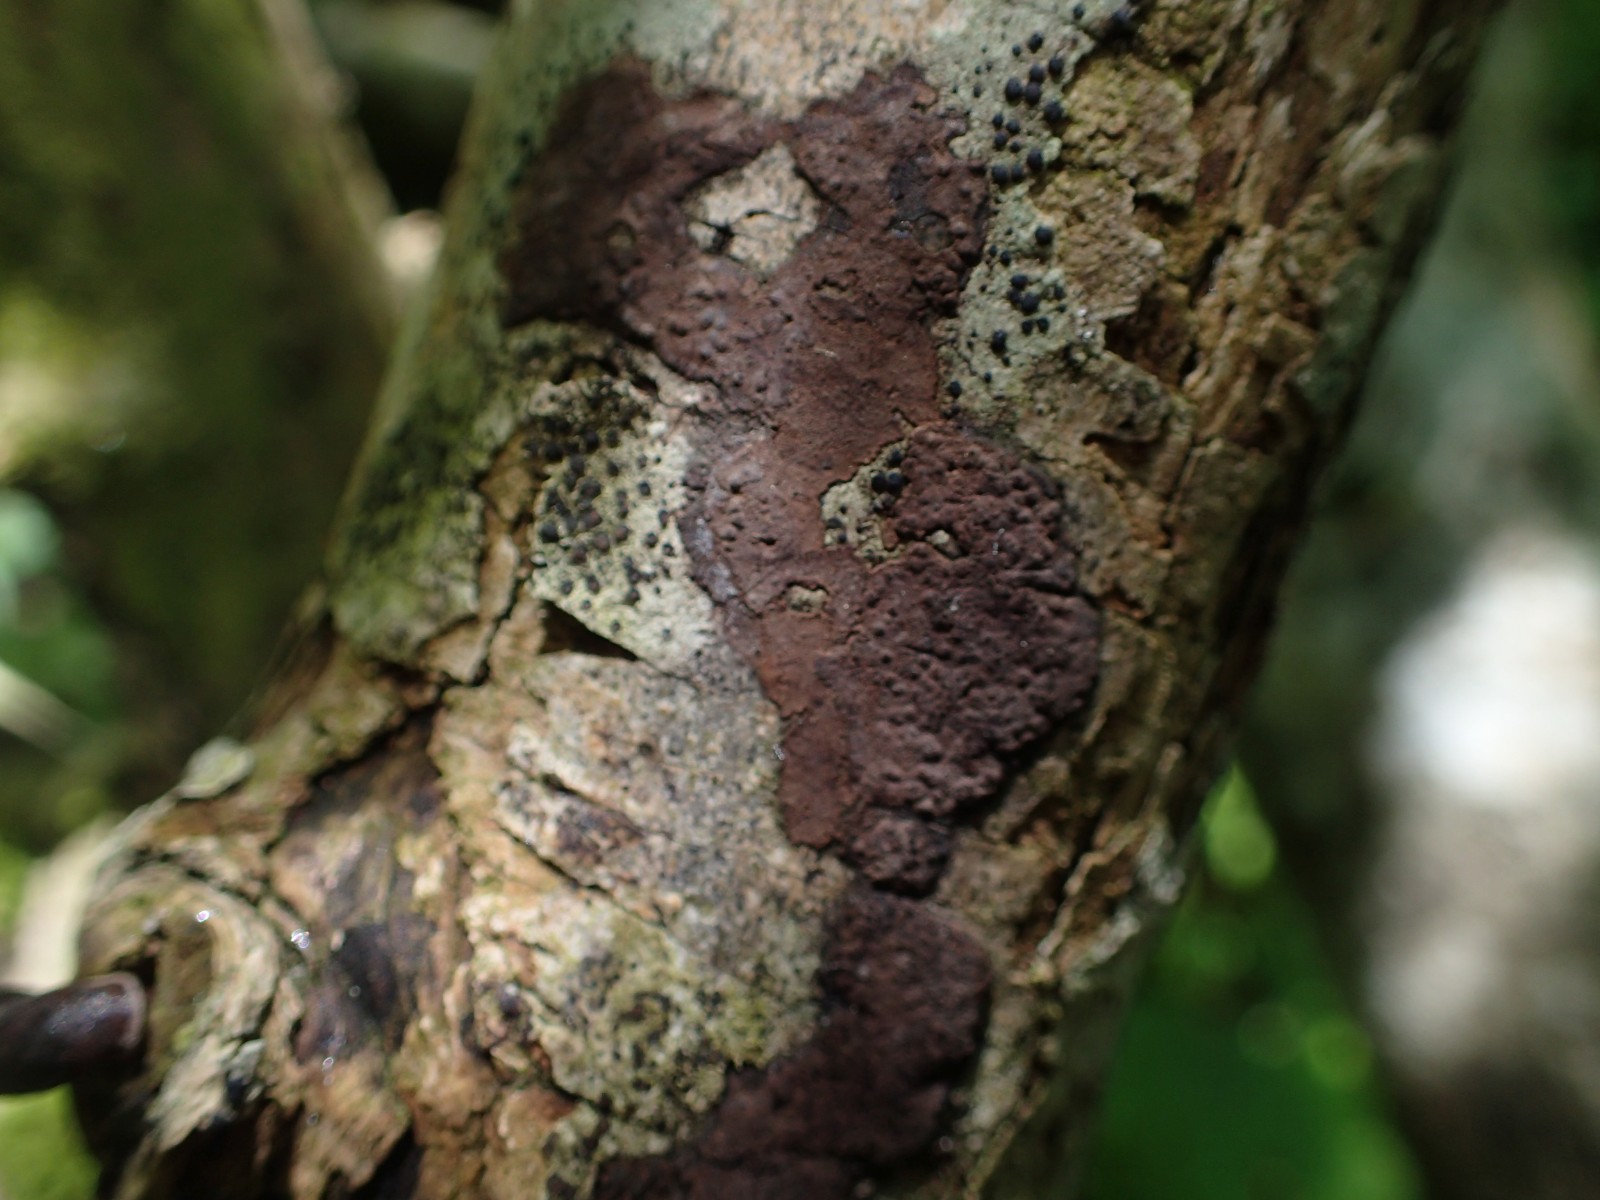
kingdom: Fungi
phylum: Ascomycota
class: Sordariomycetes
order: Xylariales
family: Hypoxylaceae
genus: Hypoxylon
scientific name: Hypoxylon
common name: kulbær
